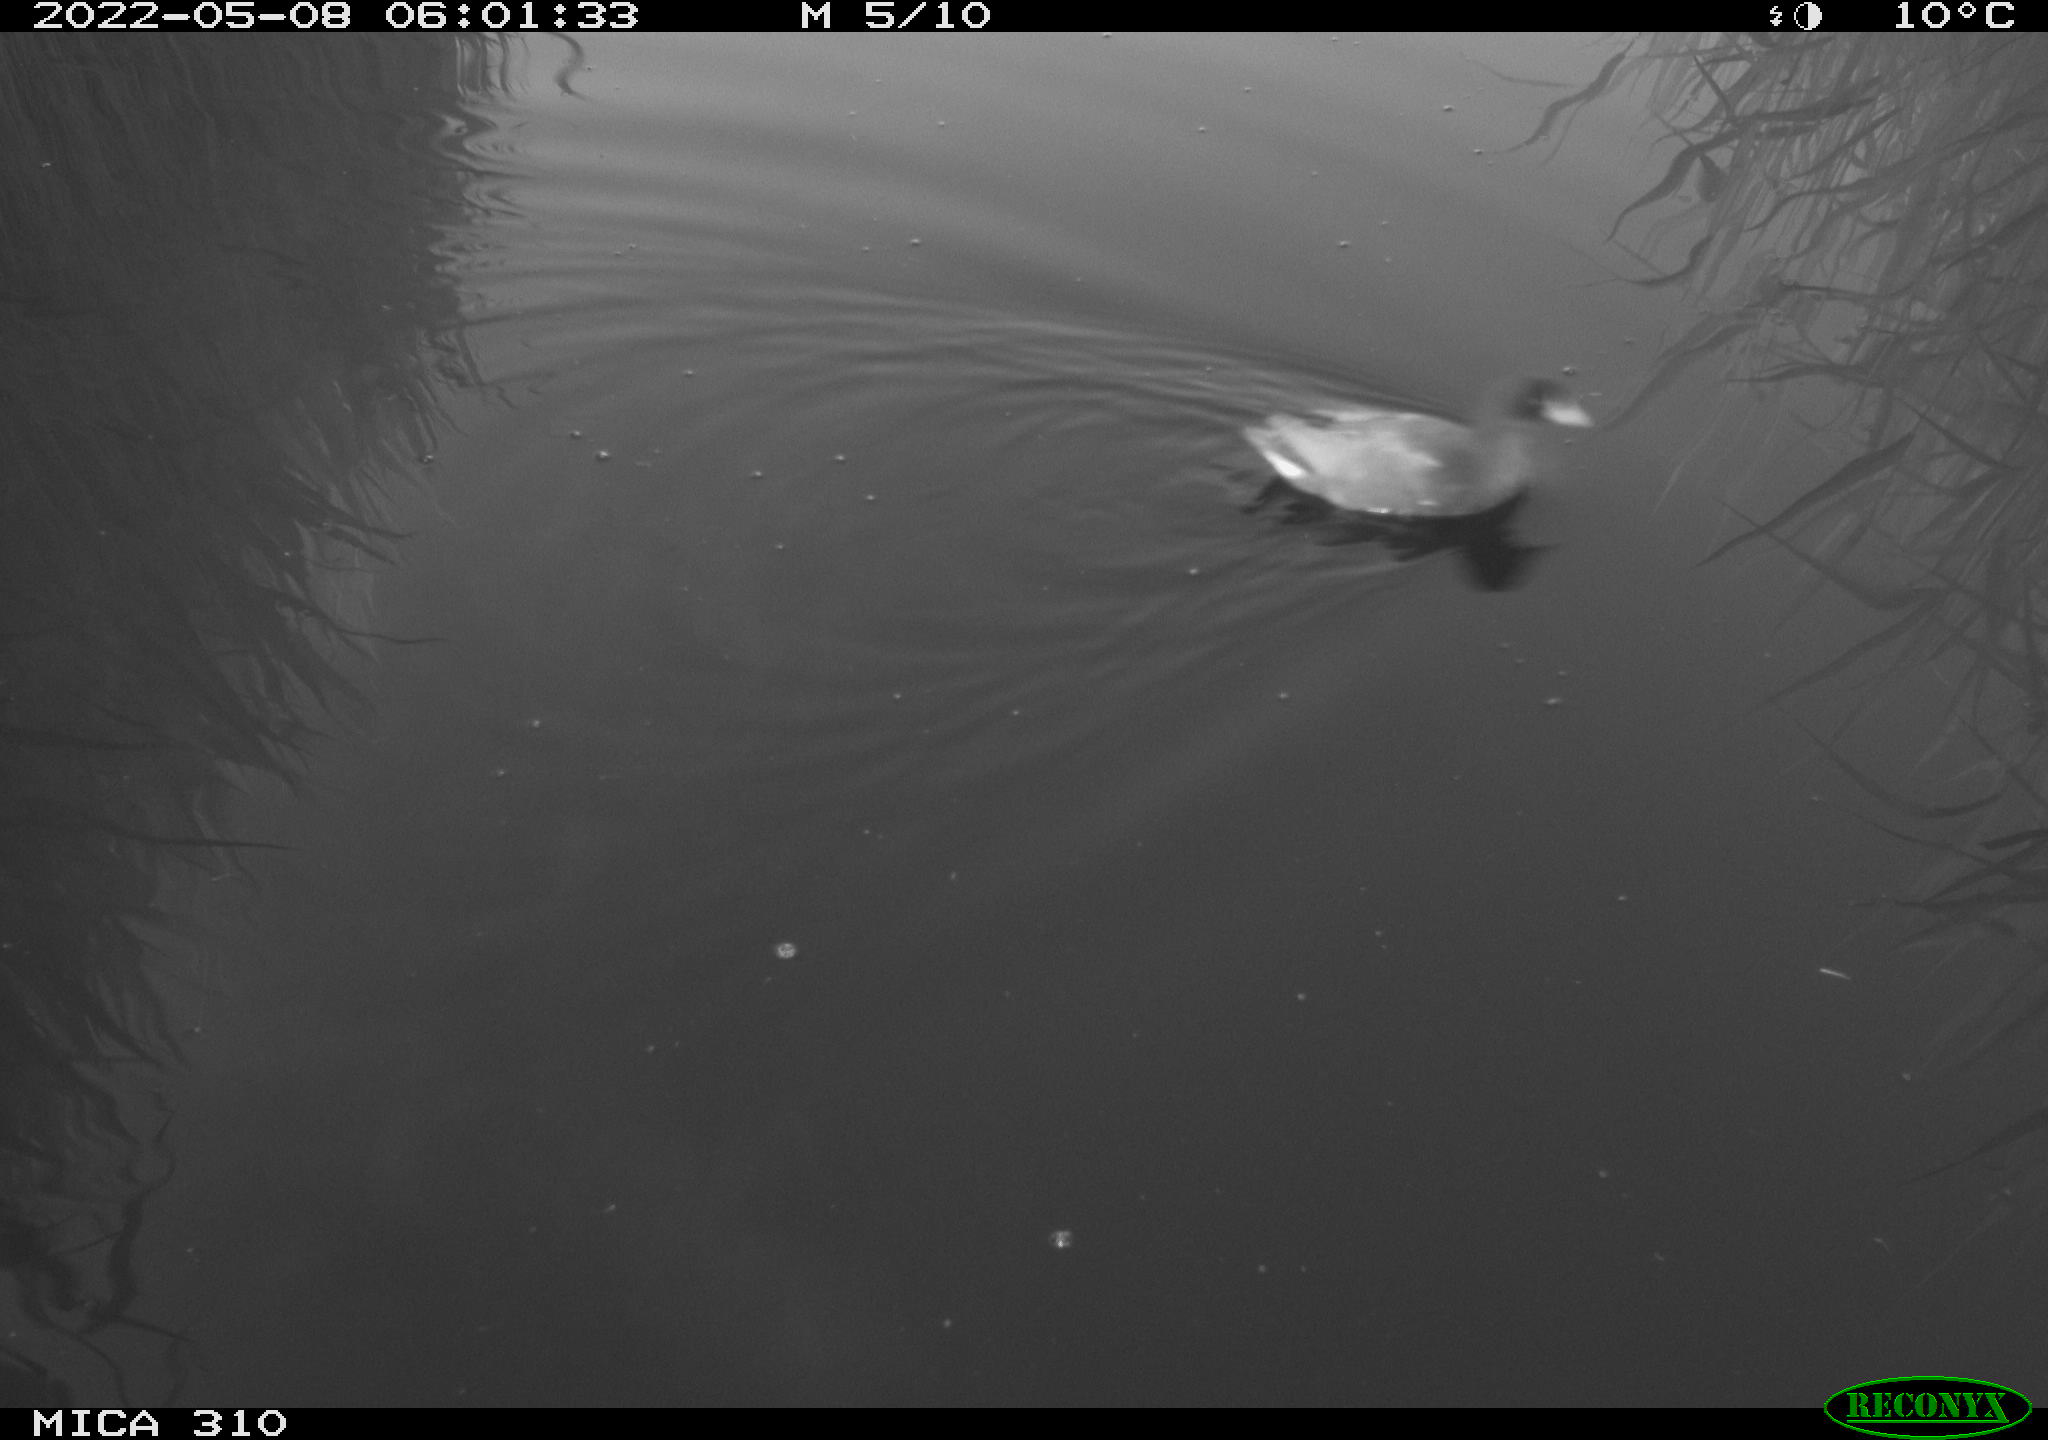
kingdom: Animalia
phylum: Chordata
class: Aves
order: Gruiformes
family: Rallidae
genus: Gallinula
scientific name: Gallinula chloropus
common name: Common moorhen
